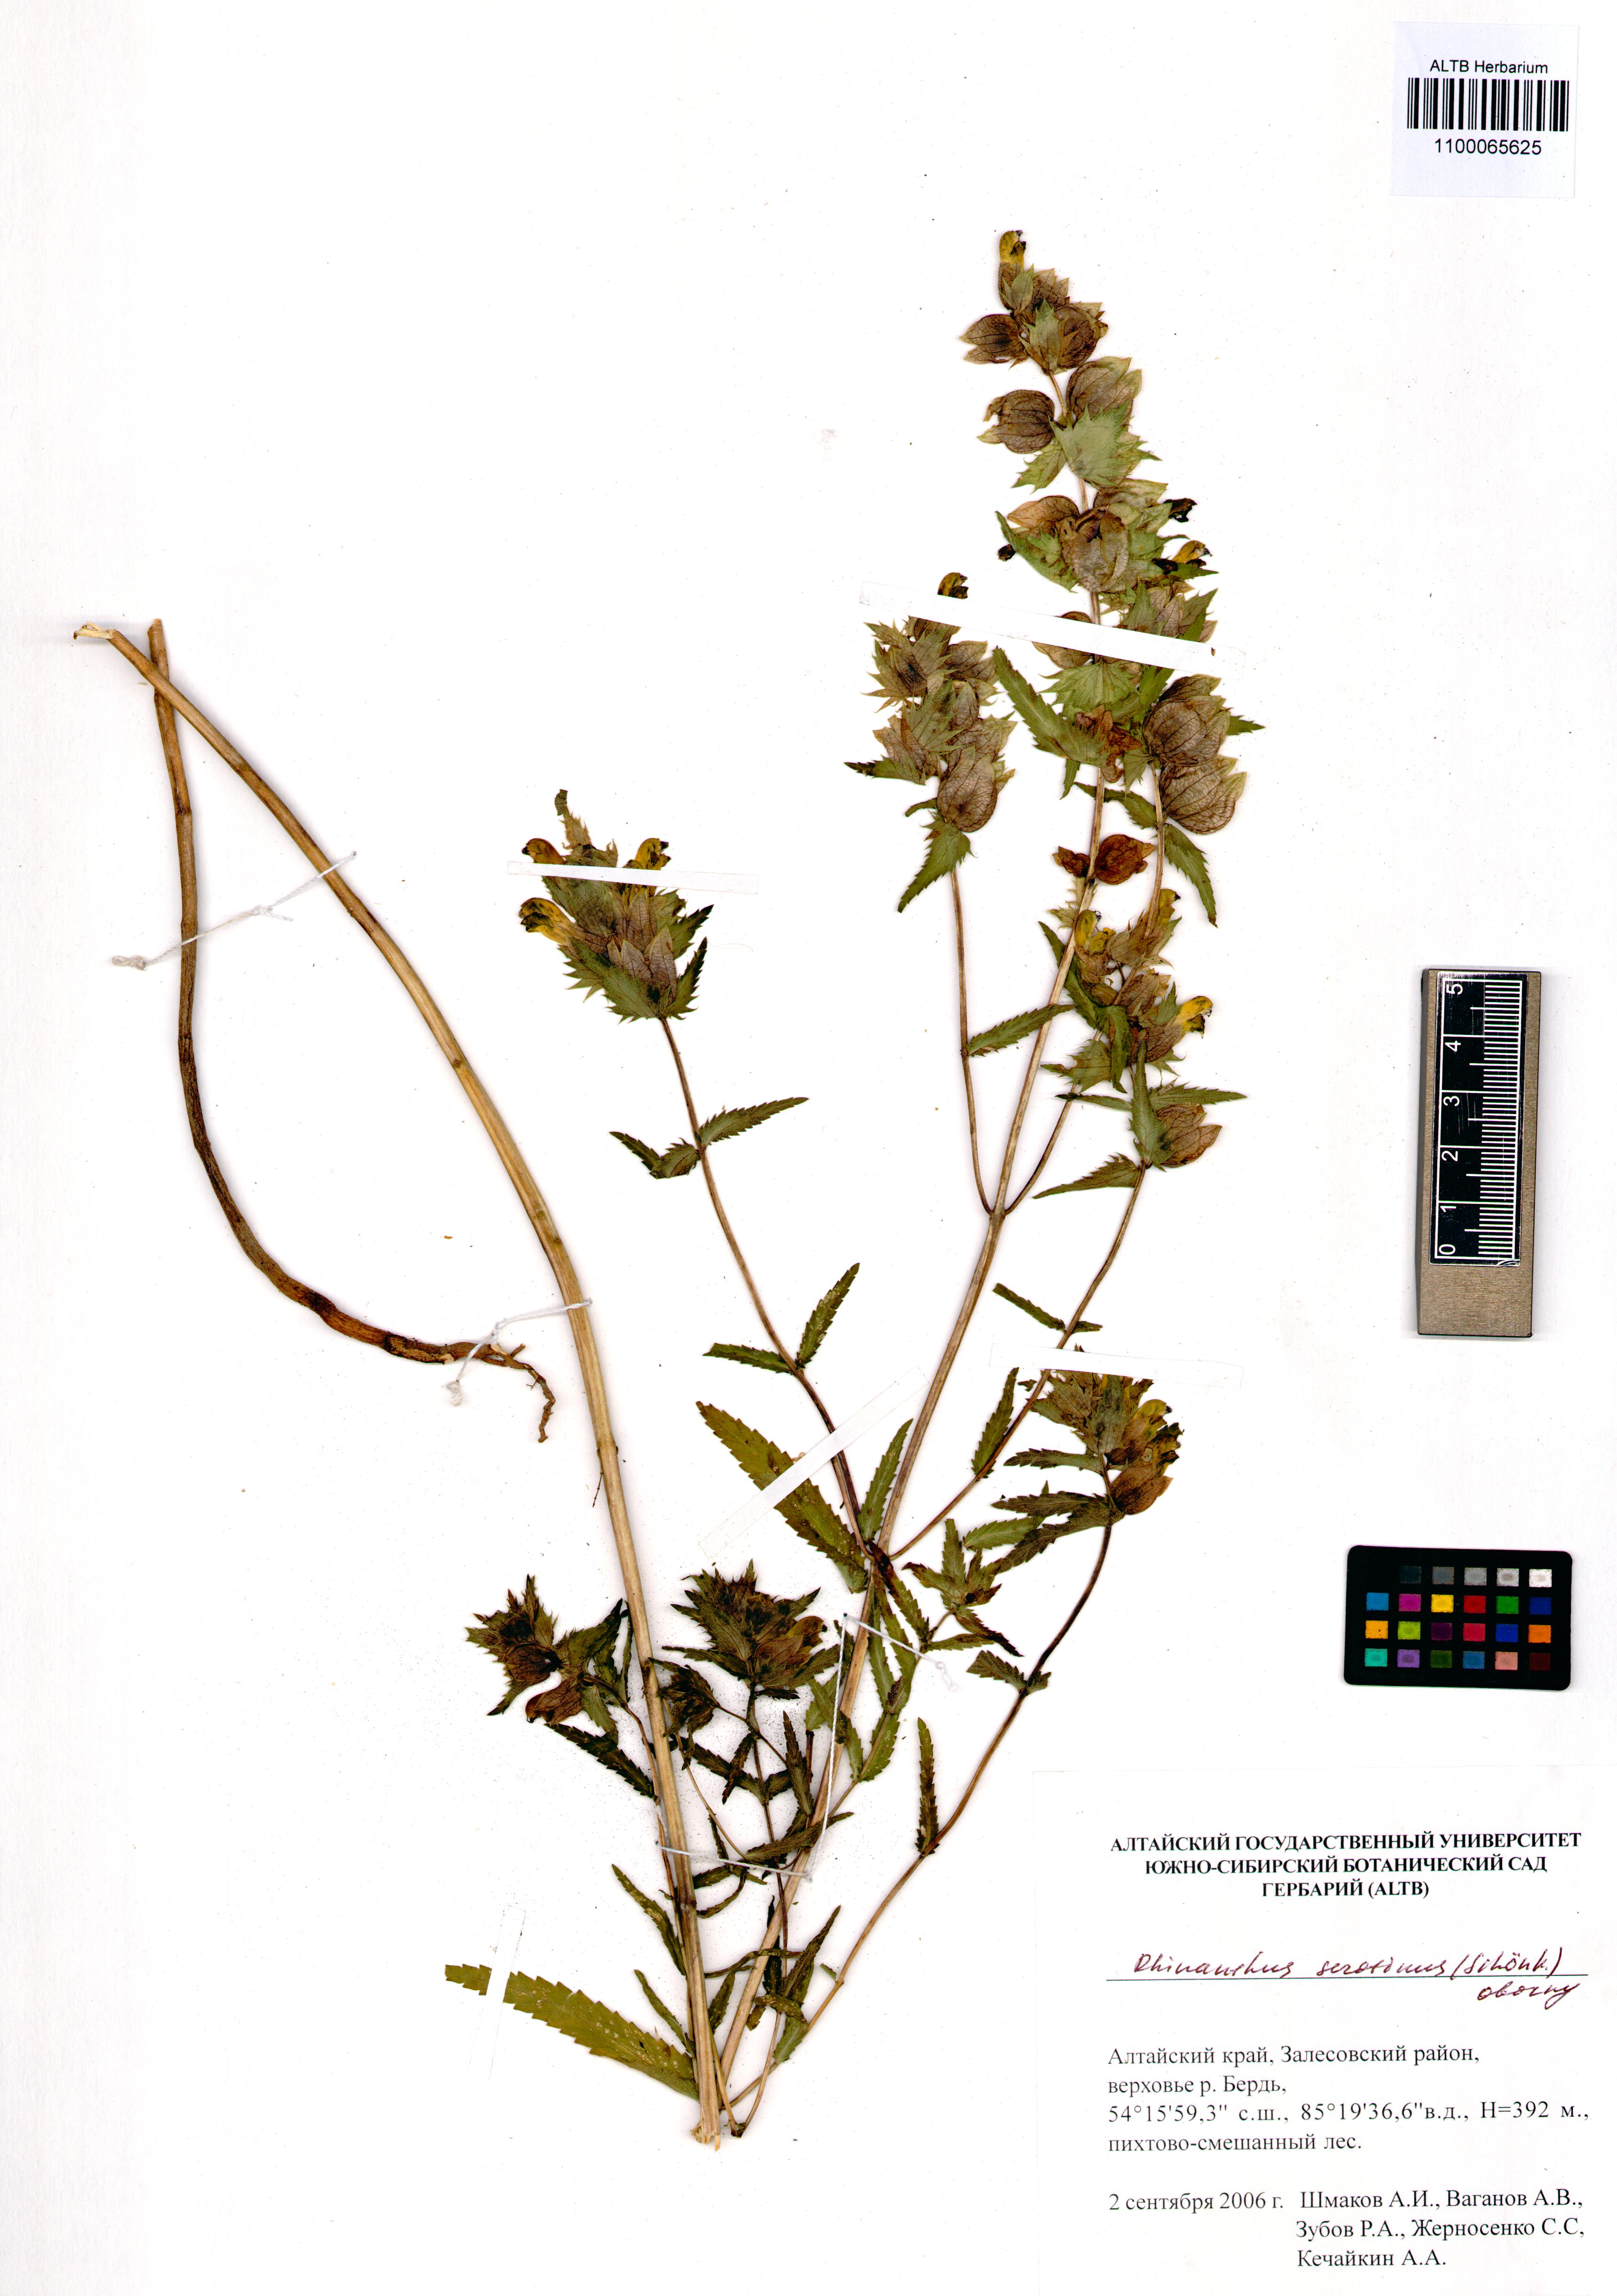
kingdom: Plantae
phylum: Tracheophyta
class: Magnoliopsida
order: Lamiales
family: Orobanchaceae
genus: Rhinanthus
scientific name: Rhinanthus serotinus
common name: Late-flowering yellow rattle
